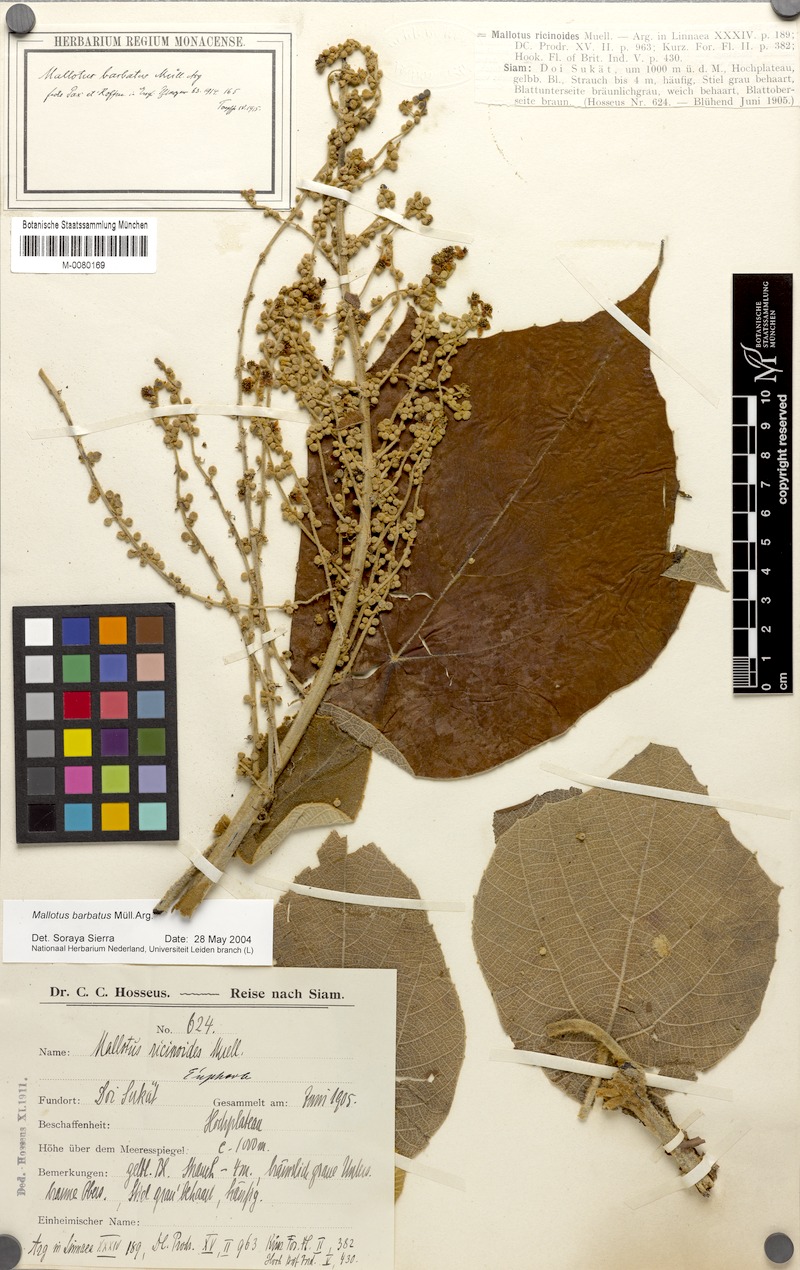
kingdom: Plantae
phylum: Tracheophyta
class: Magnoliopsida
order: Malpighiales
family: Euphorbiaceae
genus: Mallotus
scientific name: Mallotus barbatus
